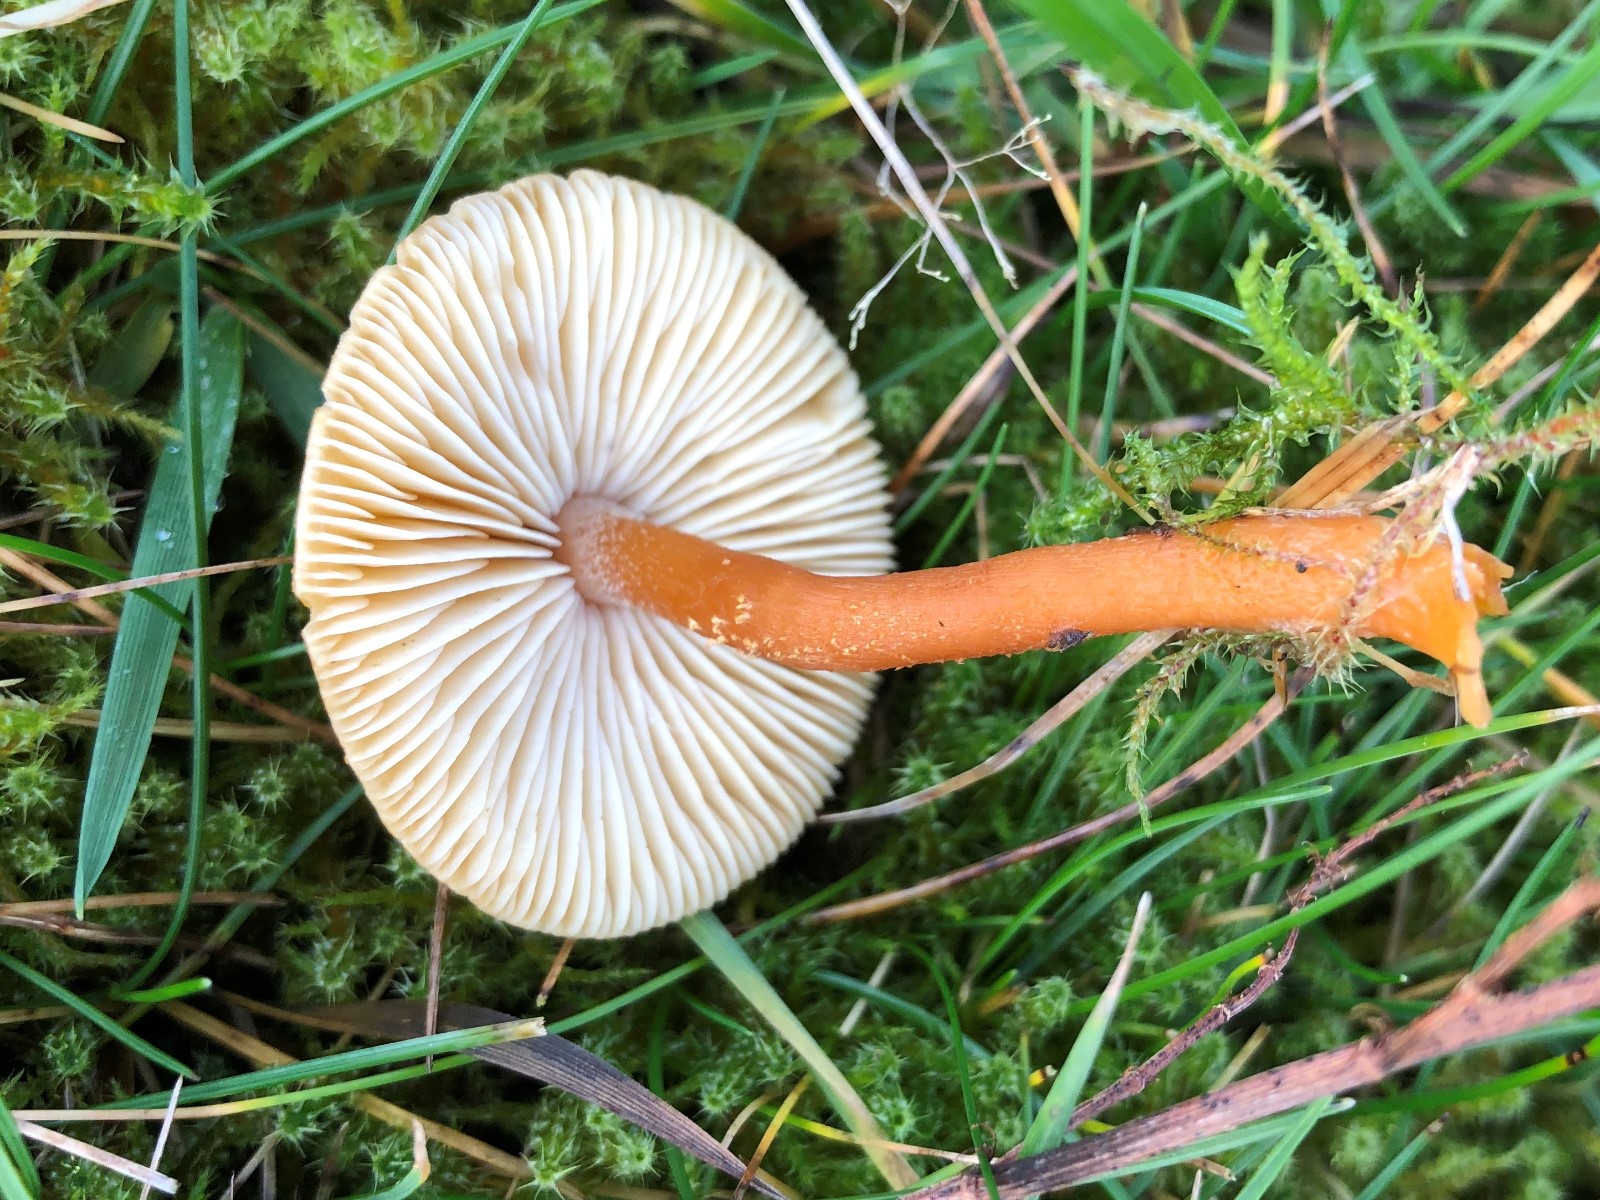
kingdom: Fungi
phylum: Basidiomycota
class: Agaricomycetes
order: Agaricales
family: Tricholomataceae
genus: Cystoderma
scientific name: Cystoderma
